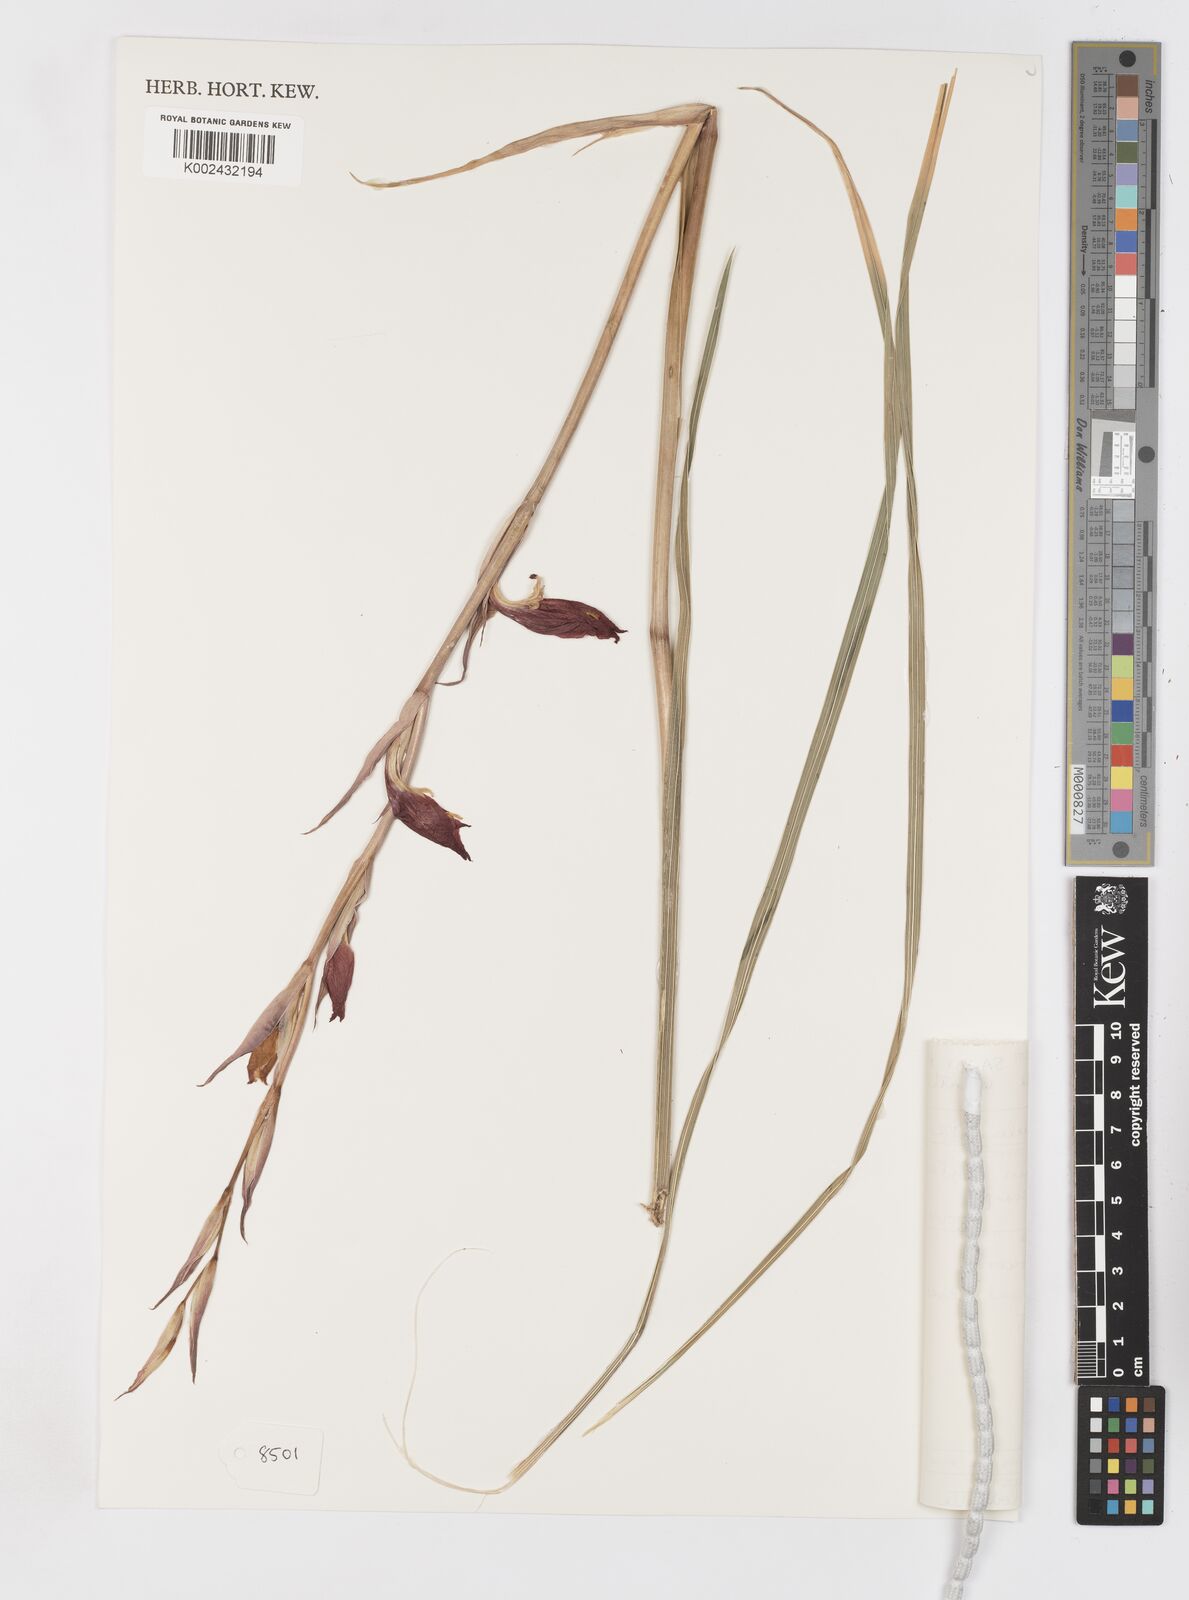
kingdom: Plantae
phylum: Tracheophyta
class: Liliopsida
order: Asparagales
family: Iridaceae
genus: Gladiolus
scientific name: Gladiolus dalenii
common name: Cornflag
